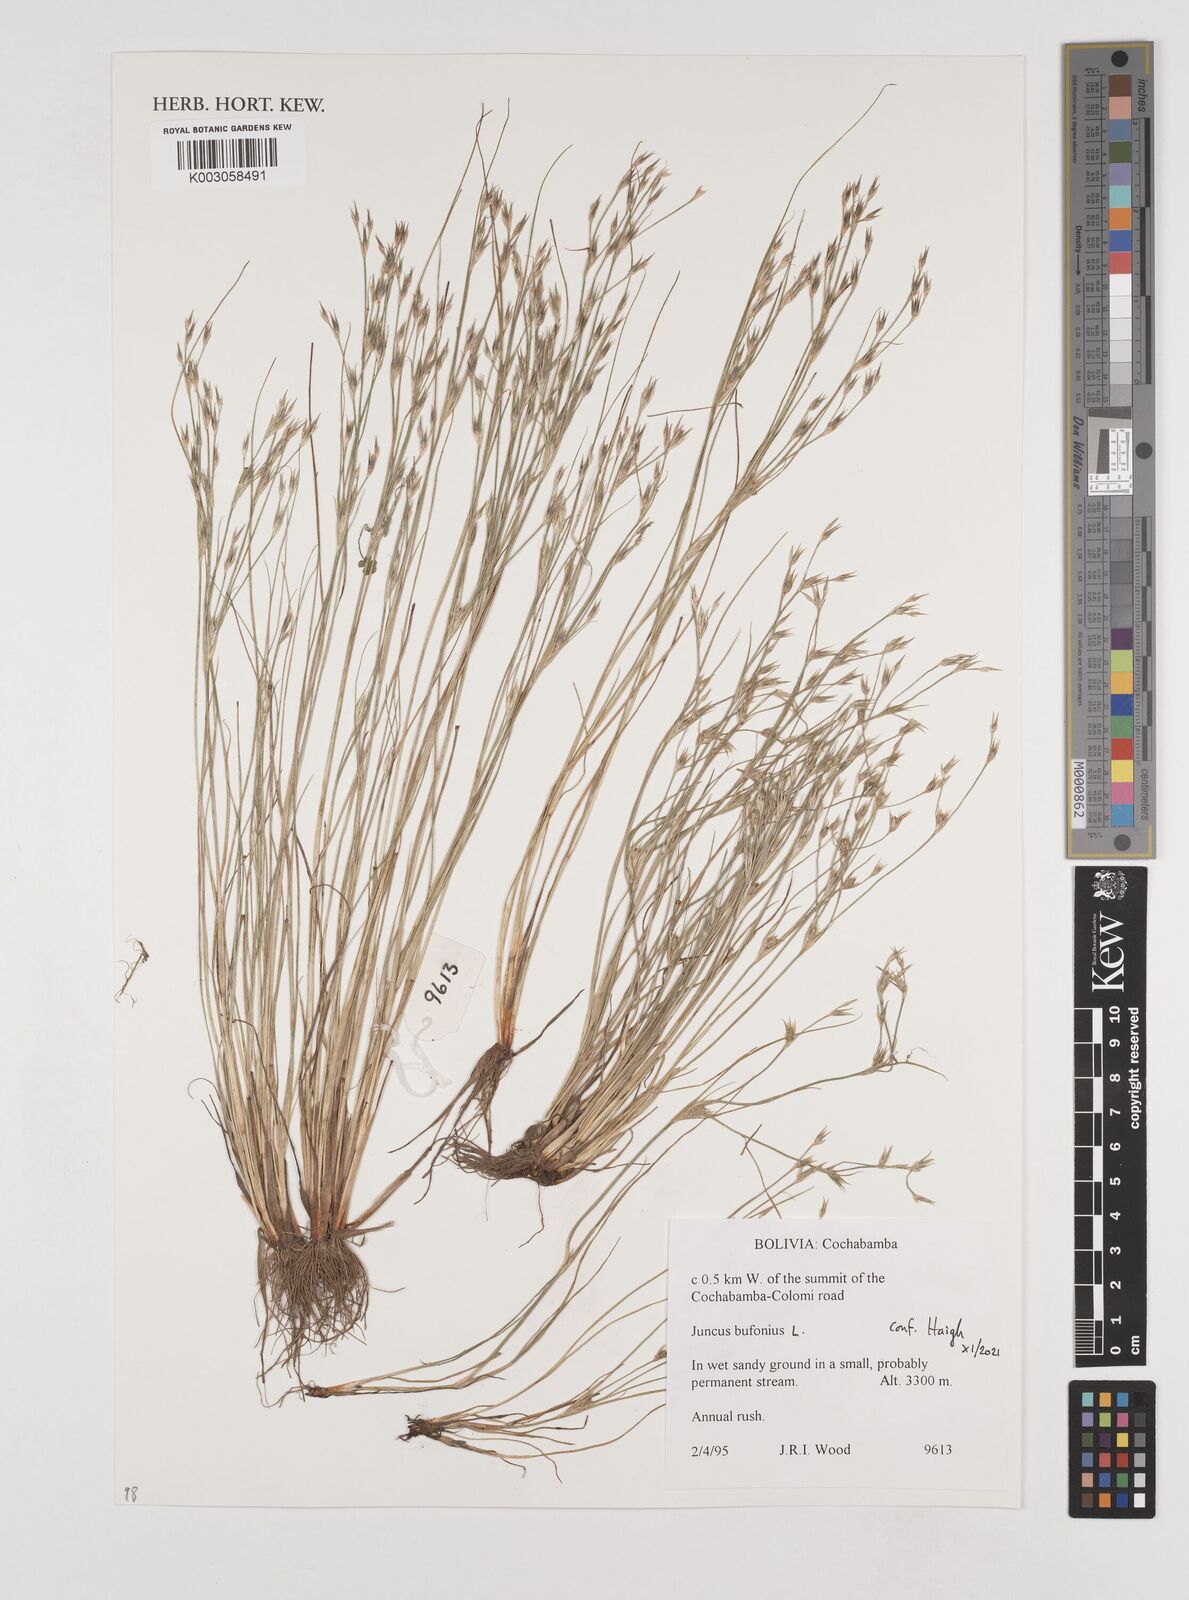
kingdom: Plantae
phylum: Tracheophyta
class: Liliopsida
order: Poales
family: Juncaceae
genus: Juncus
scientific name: Juncus bufonius
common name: Toad rush
